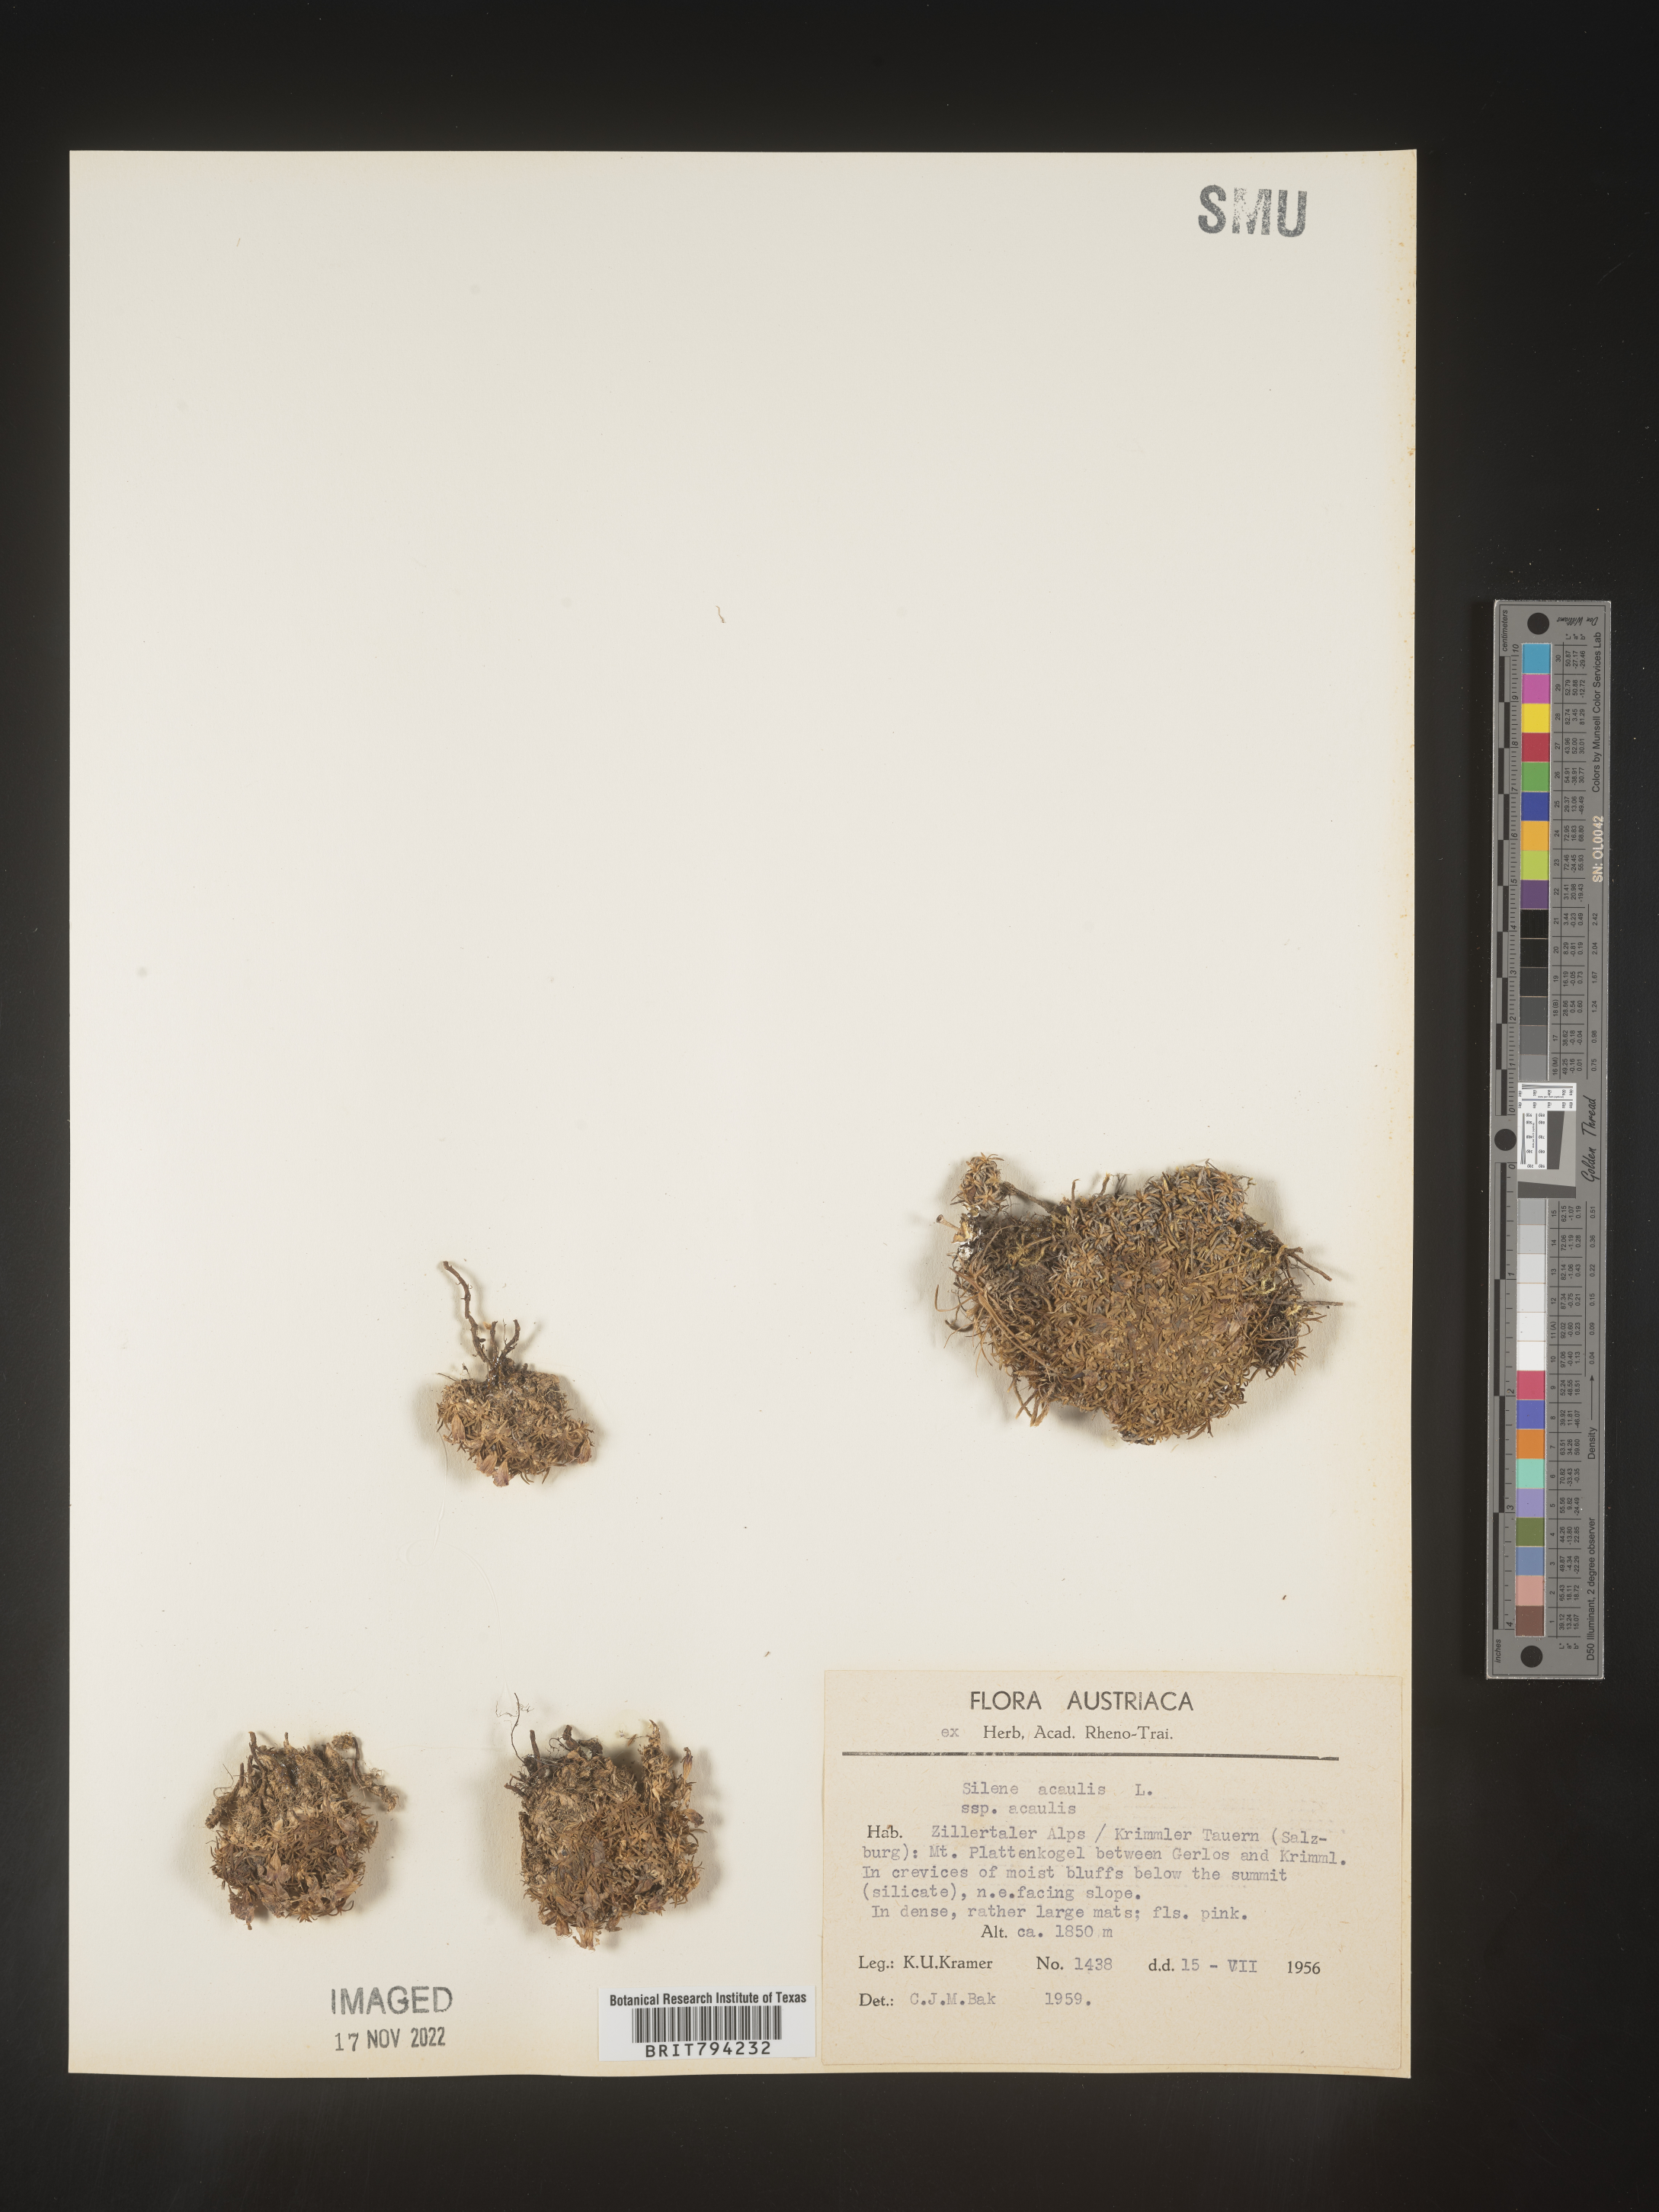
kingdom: Plantae
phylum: Tracheophyta
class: Magnoliopsida
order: Caryophyllales
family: Caryophyllaceae
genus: Silene
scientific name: Silene acaulis
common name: Moss campion
